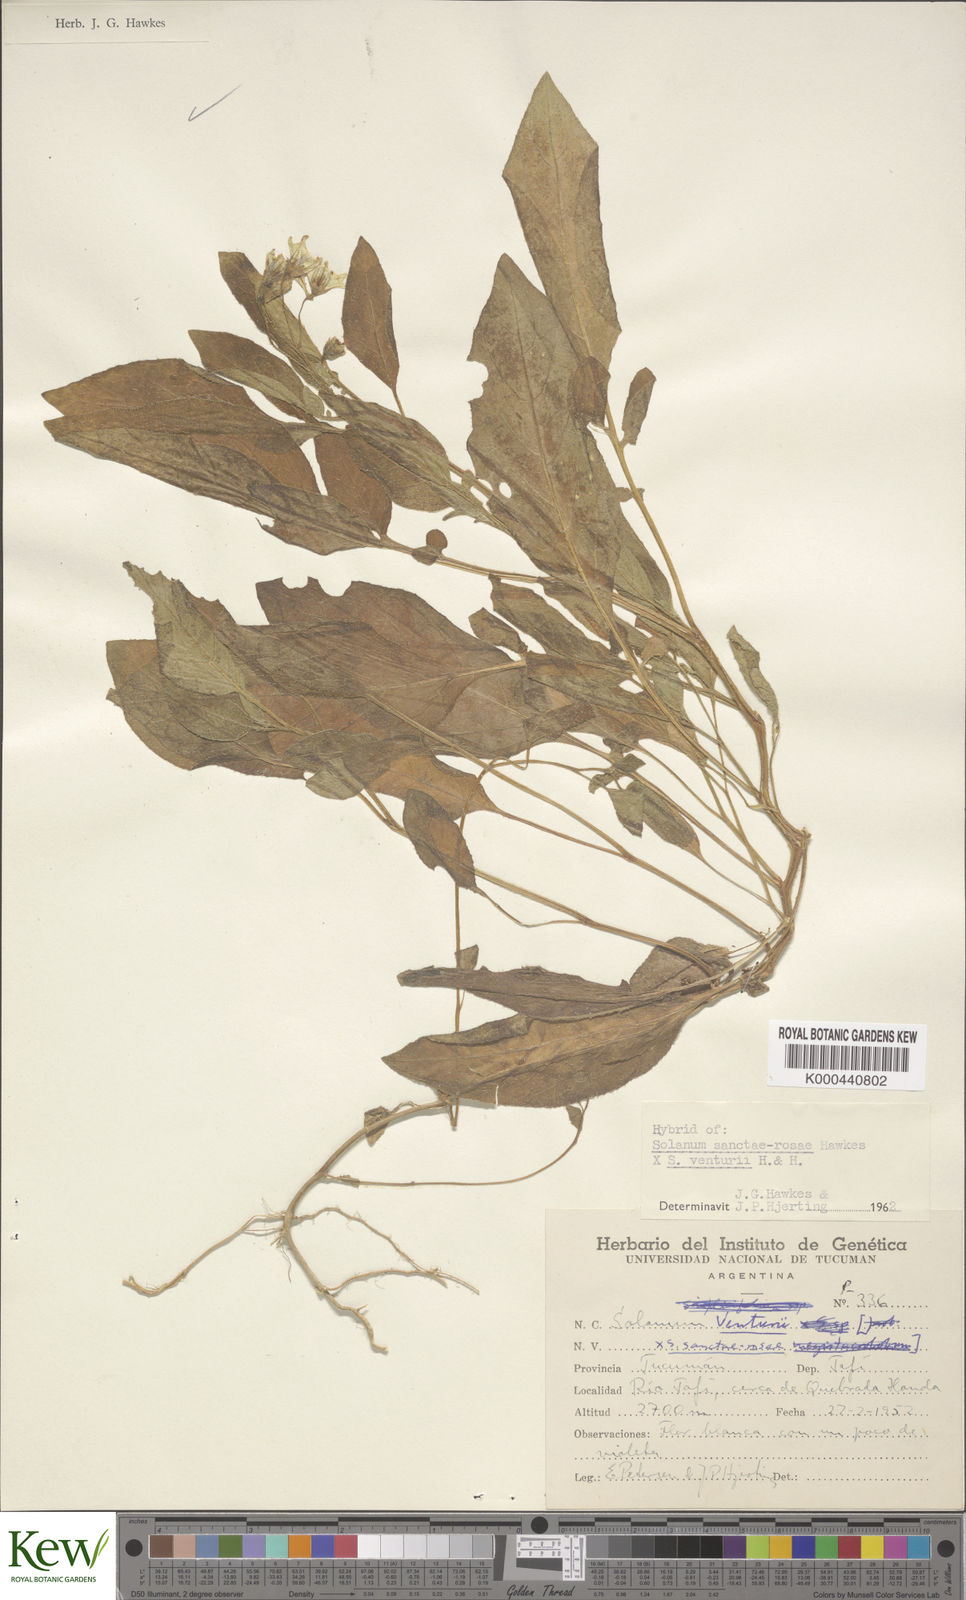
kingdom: Plantae
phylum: Tracheophyta
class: Magnoliopsida
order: Solanales
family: Solanaceae
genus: Solanum
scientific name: Solanum boliviense
